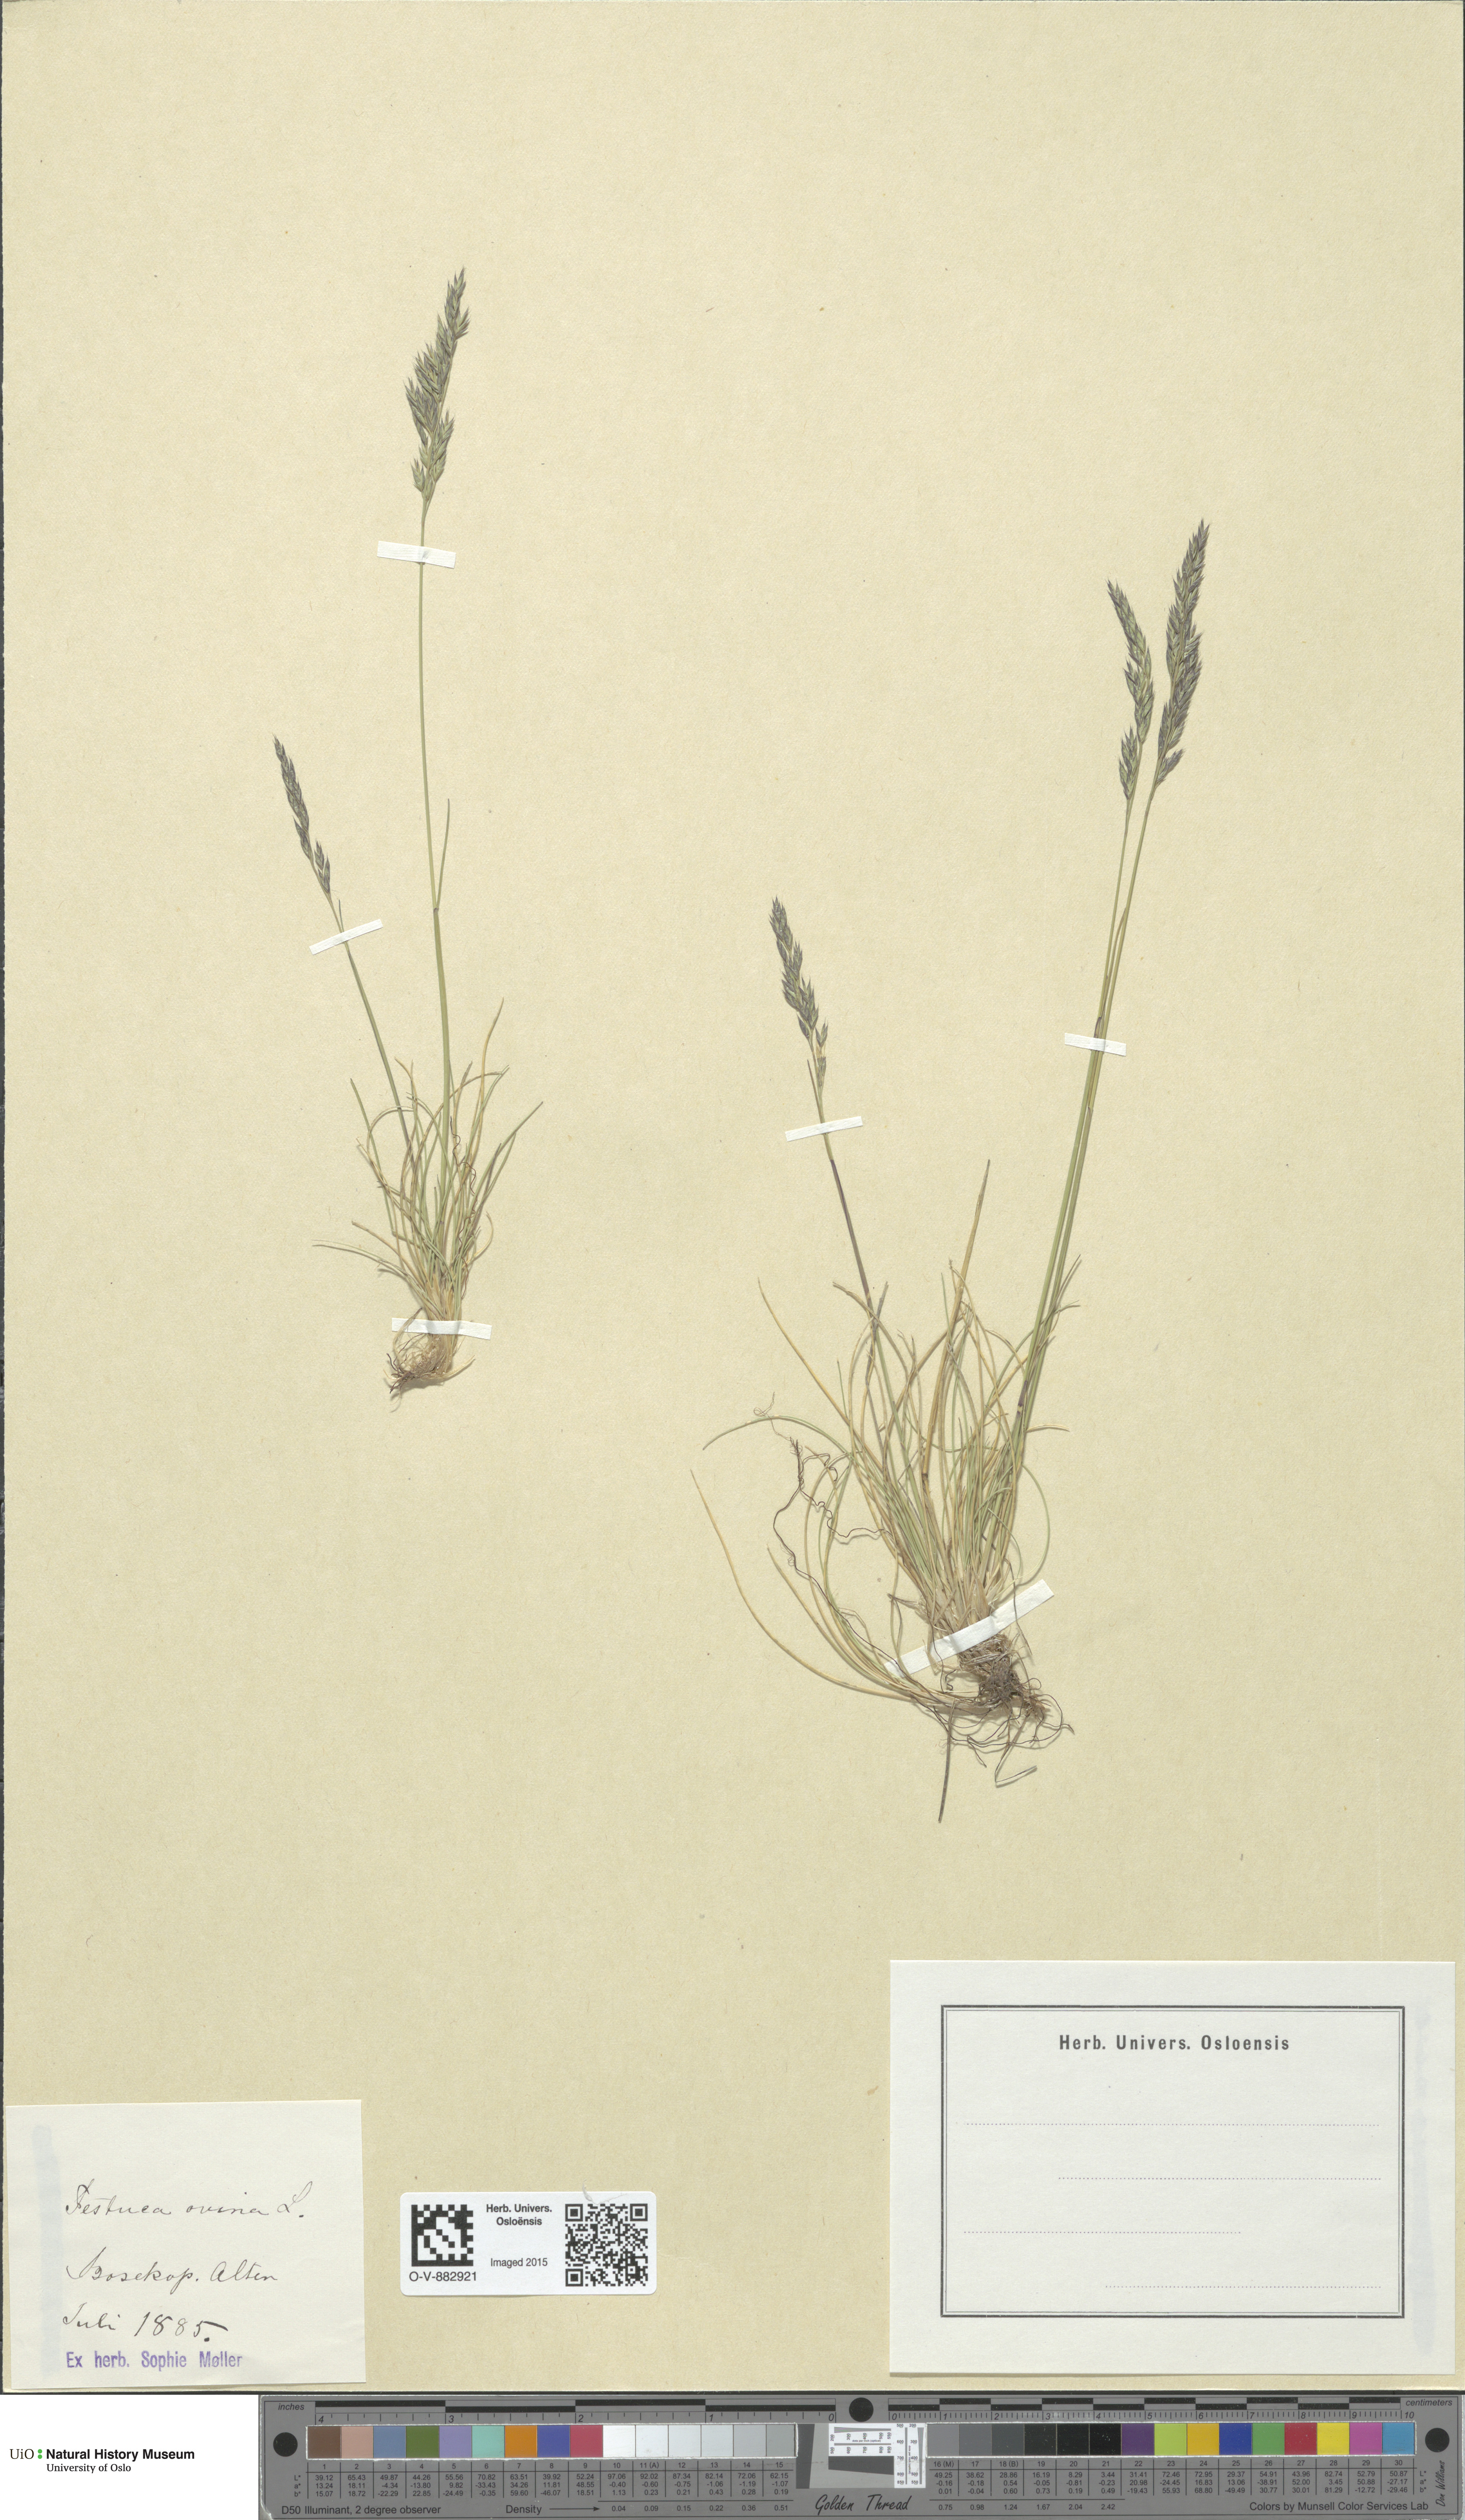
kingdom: Plantae
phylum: Tracheophyta
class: Liliopsida
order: Poales
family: Poaceae
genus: Festuca
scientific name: Festuca ovina
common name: Sheep fescue
